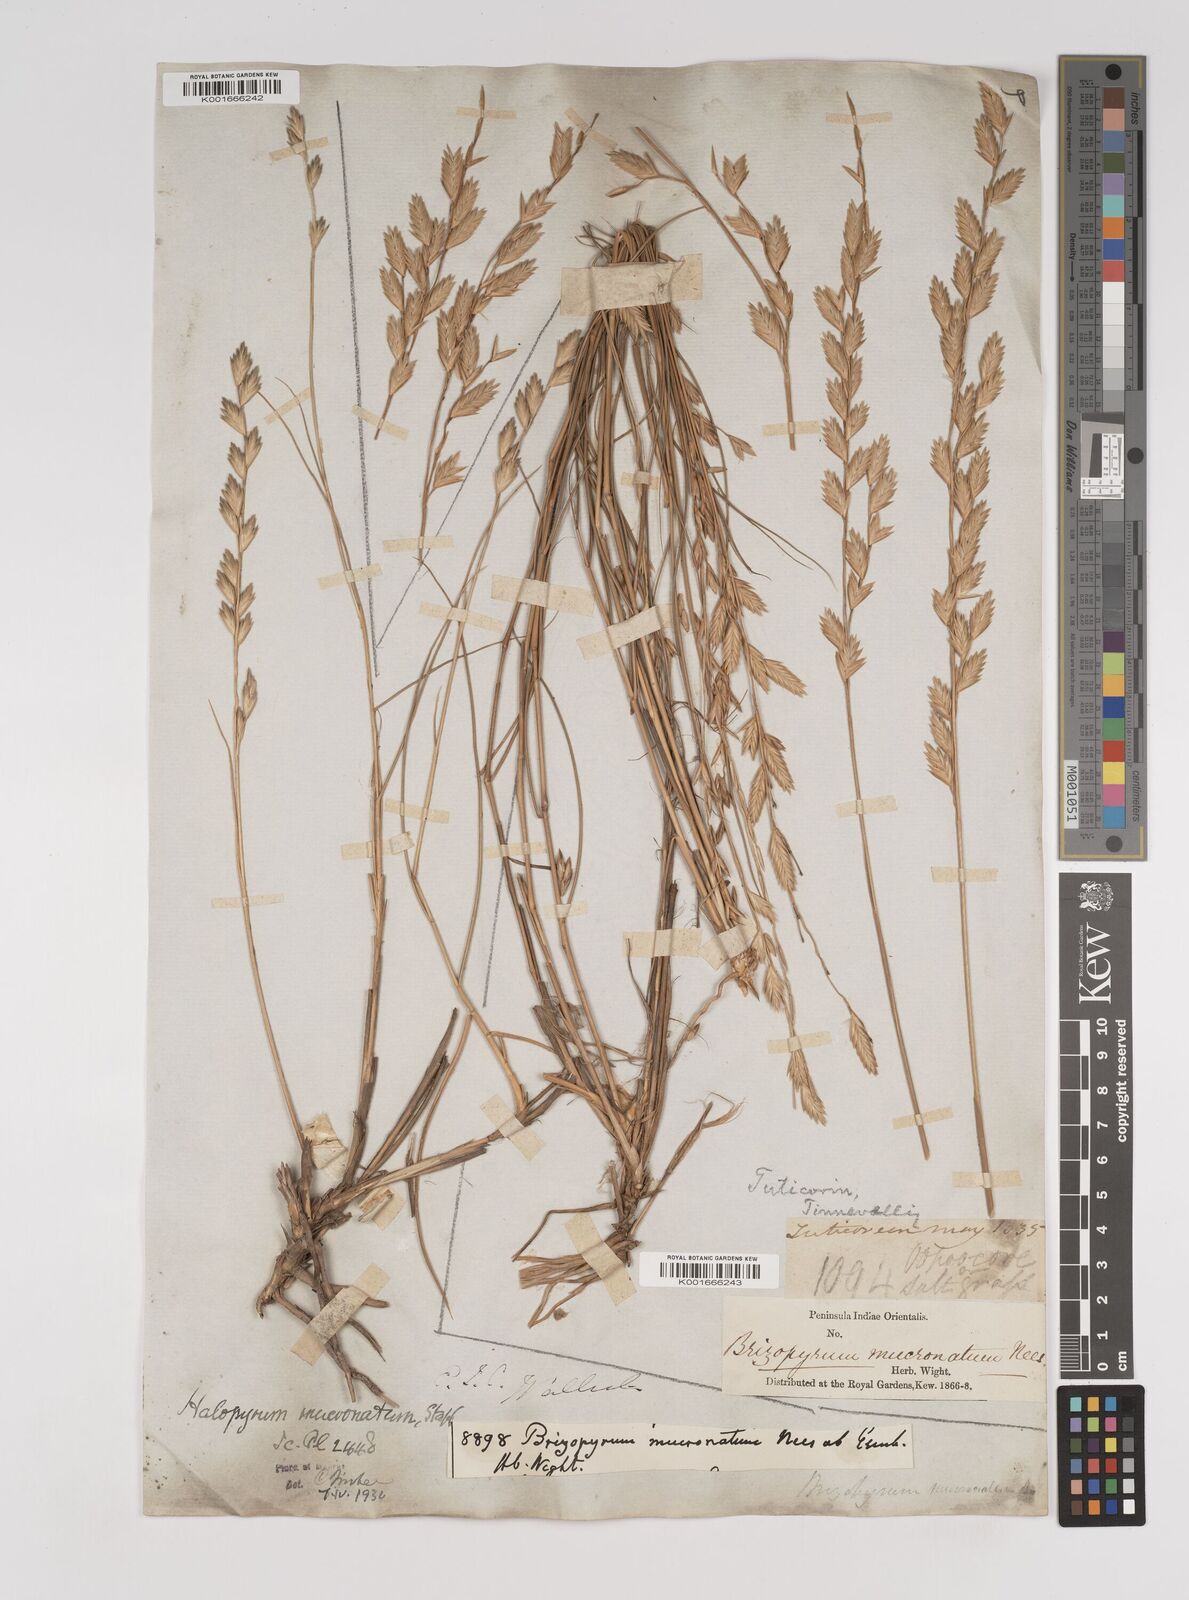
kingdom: Plantae
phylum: Tracheophyta
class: Liliopsida
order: Poales
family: Poaceae
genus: Halopyrum
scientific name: Halopyrum mucronatum
